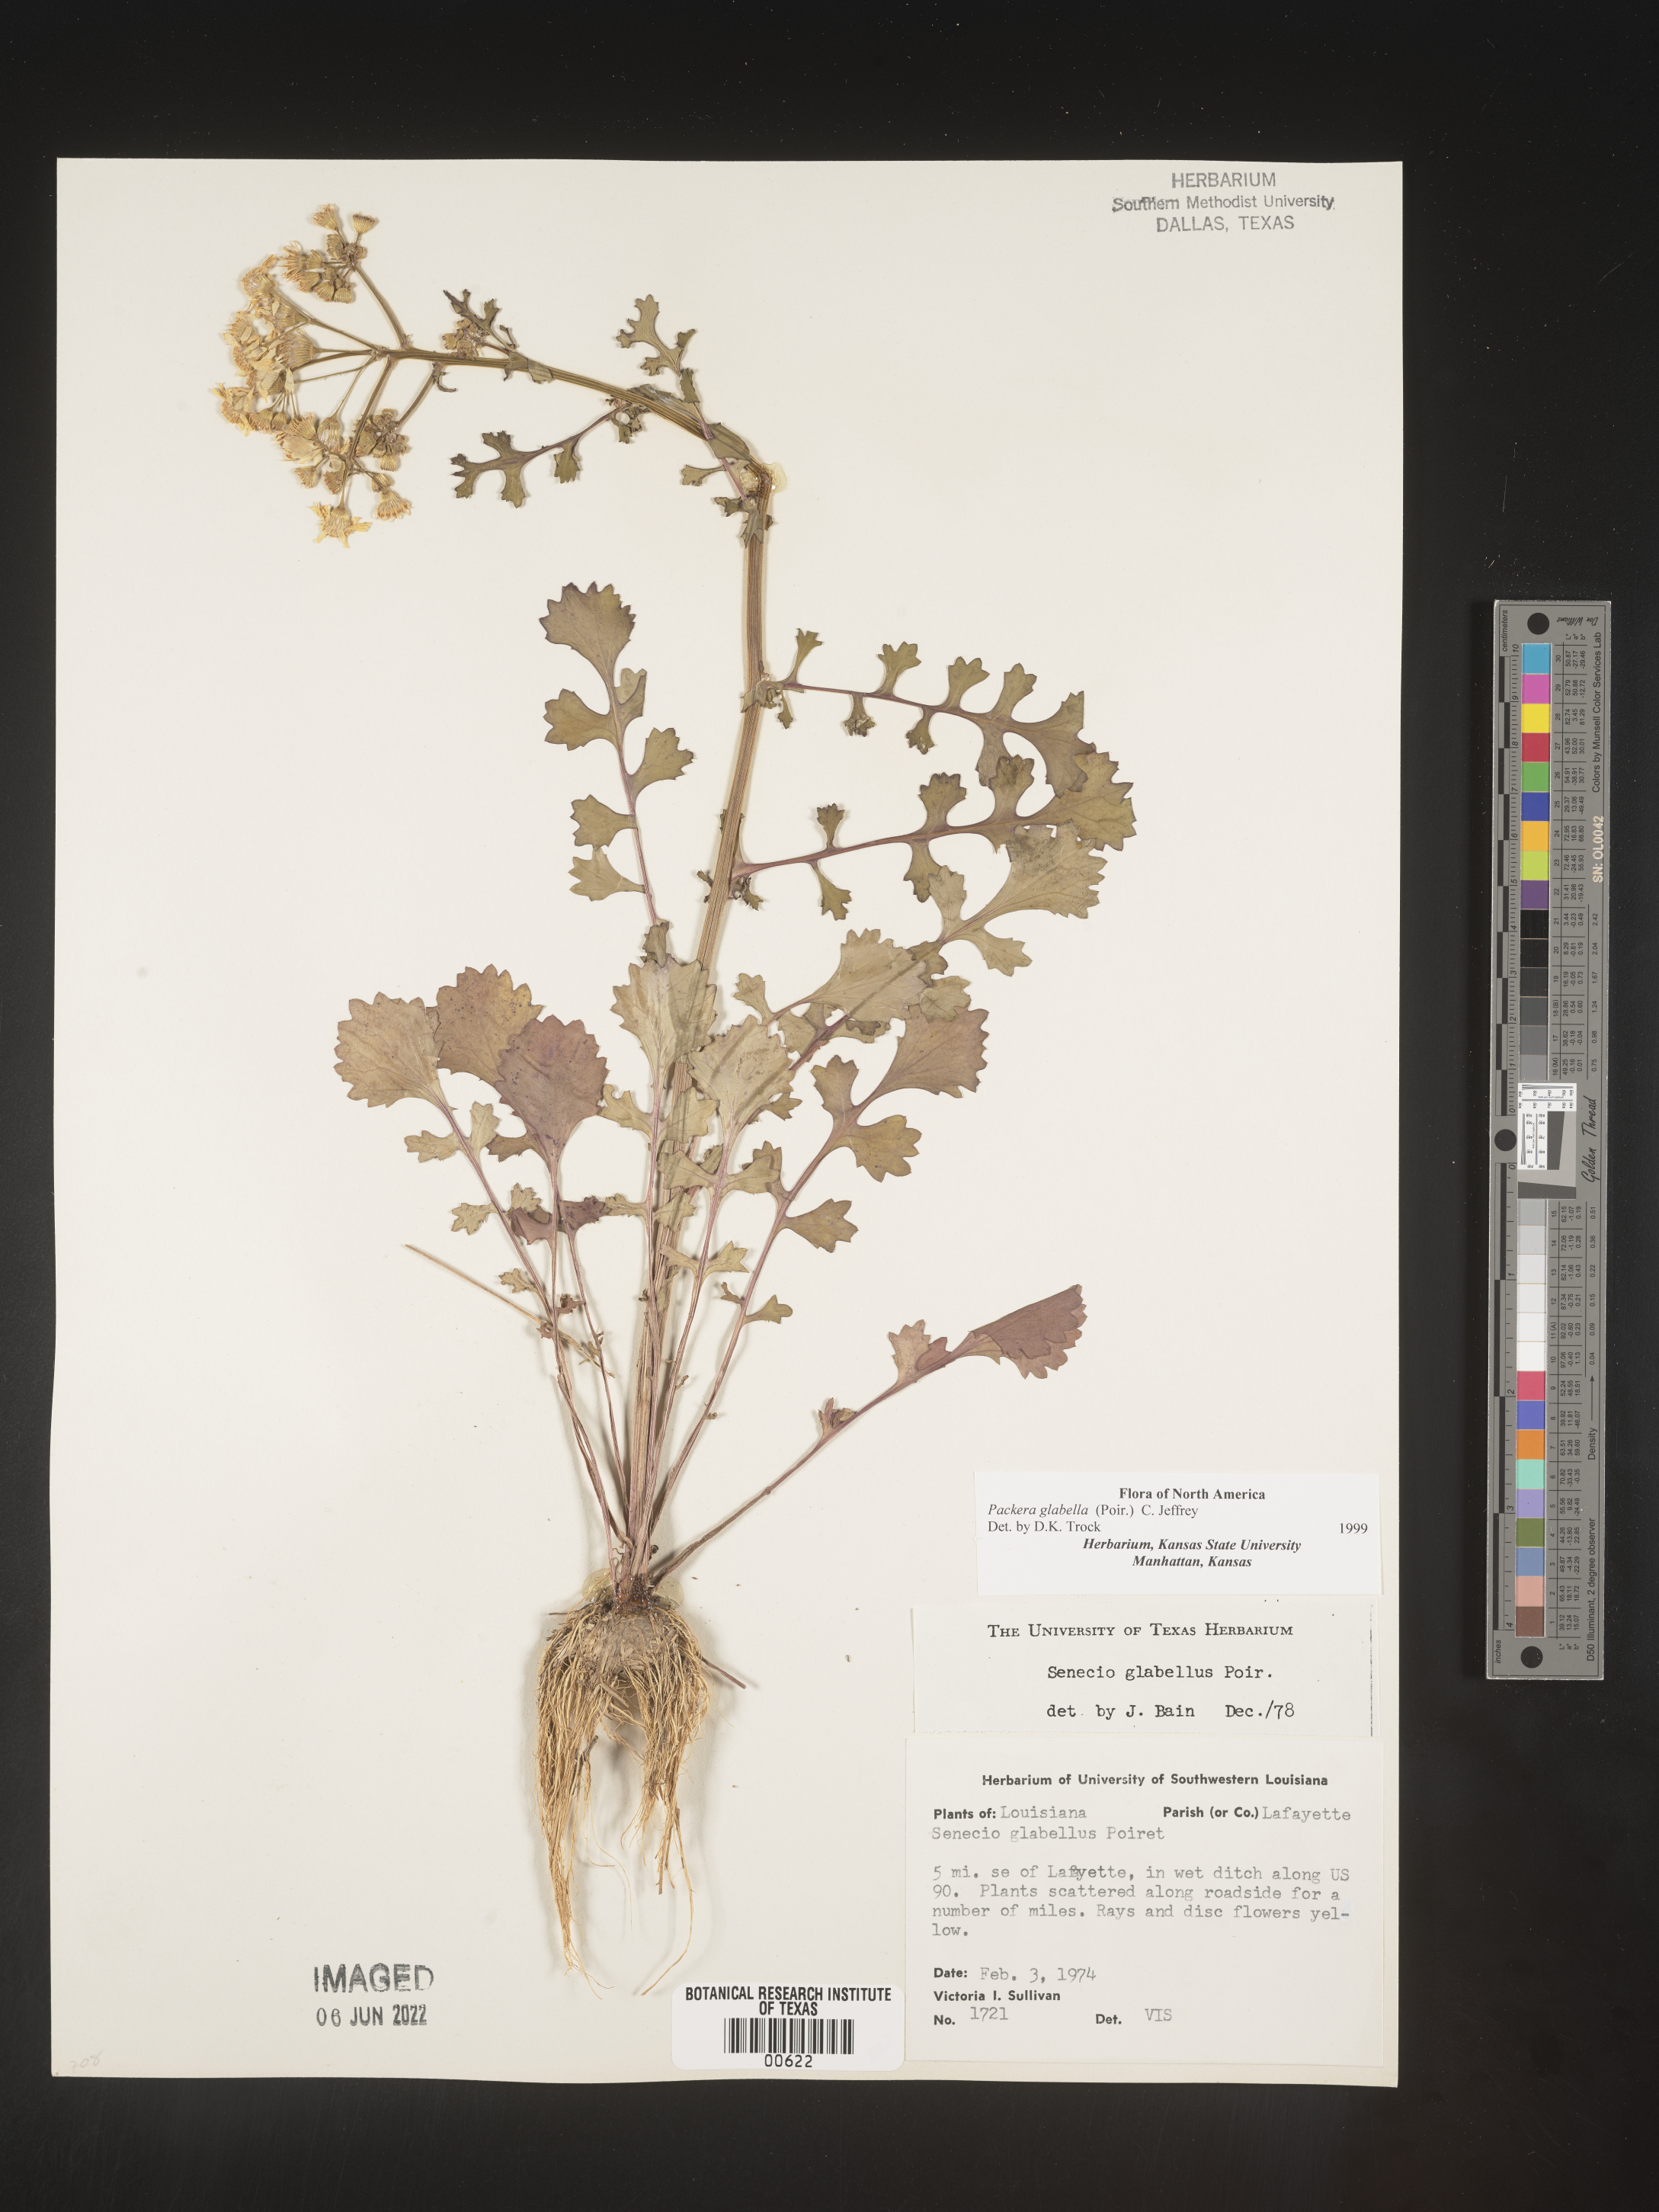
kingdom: Plantae
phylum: Tracheophyta
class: Magnoliopsida
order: Asterales
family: Asteraceae
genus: Packera
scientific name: Packera glabella
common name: Butterweed
